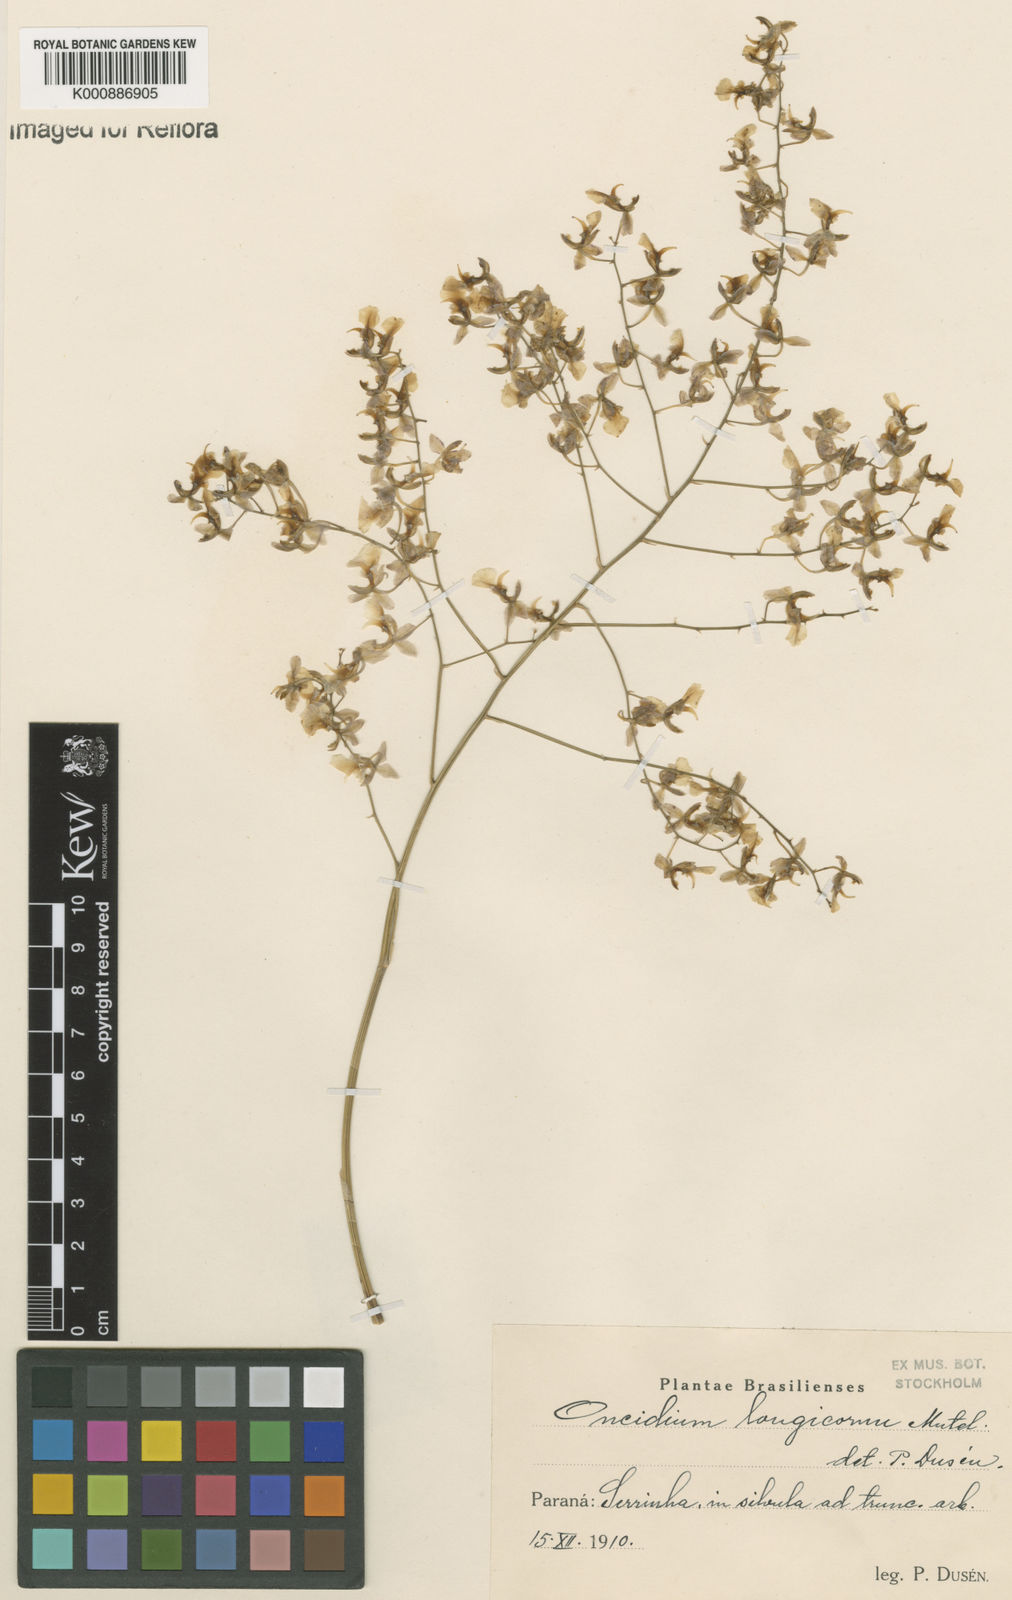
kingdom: Plantae
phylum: Tracheophyta
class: Liliopsida
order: Asparagales
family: Orchidaceae
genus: Gomesa
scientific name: Gomesa florida
